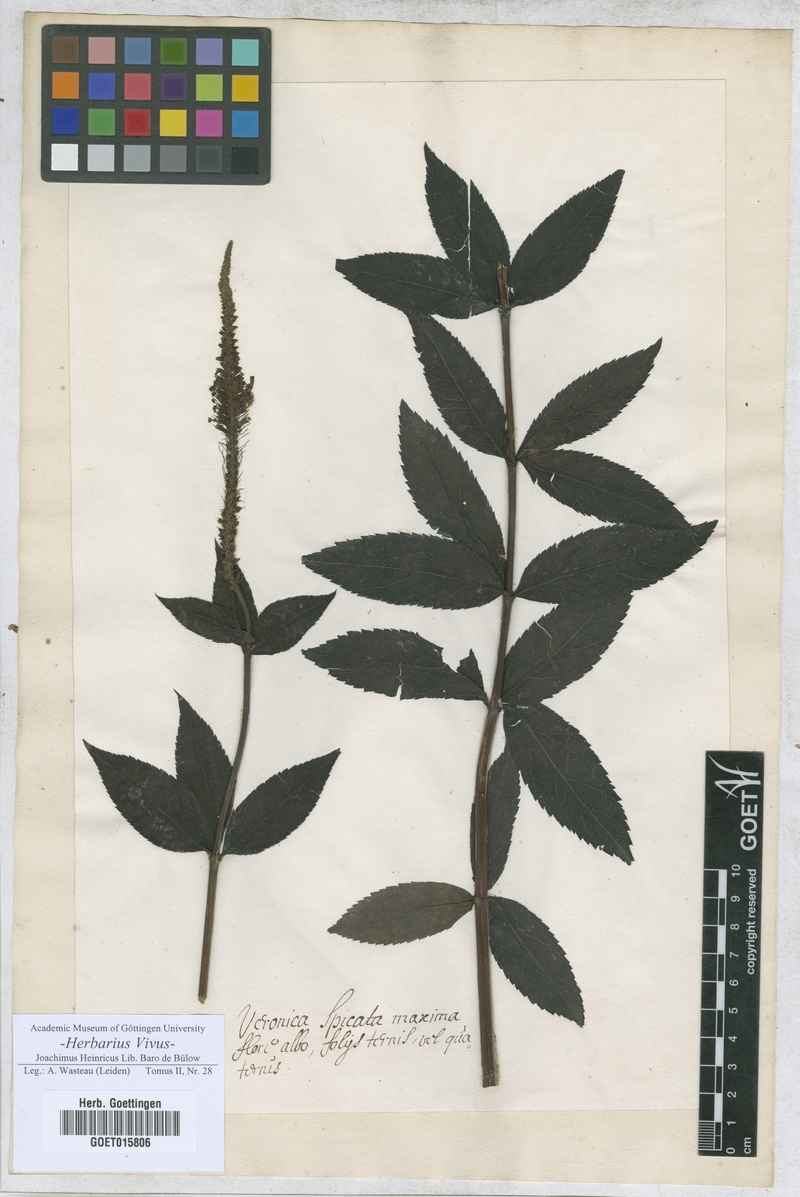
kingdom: Plantae
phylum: Tracheophyta
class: Magnoliopsida
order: Lamiales
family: Plantaginaceae
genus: Veronica
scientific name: Veronica
